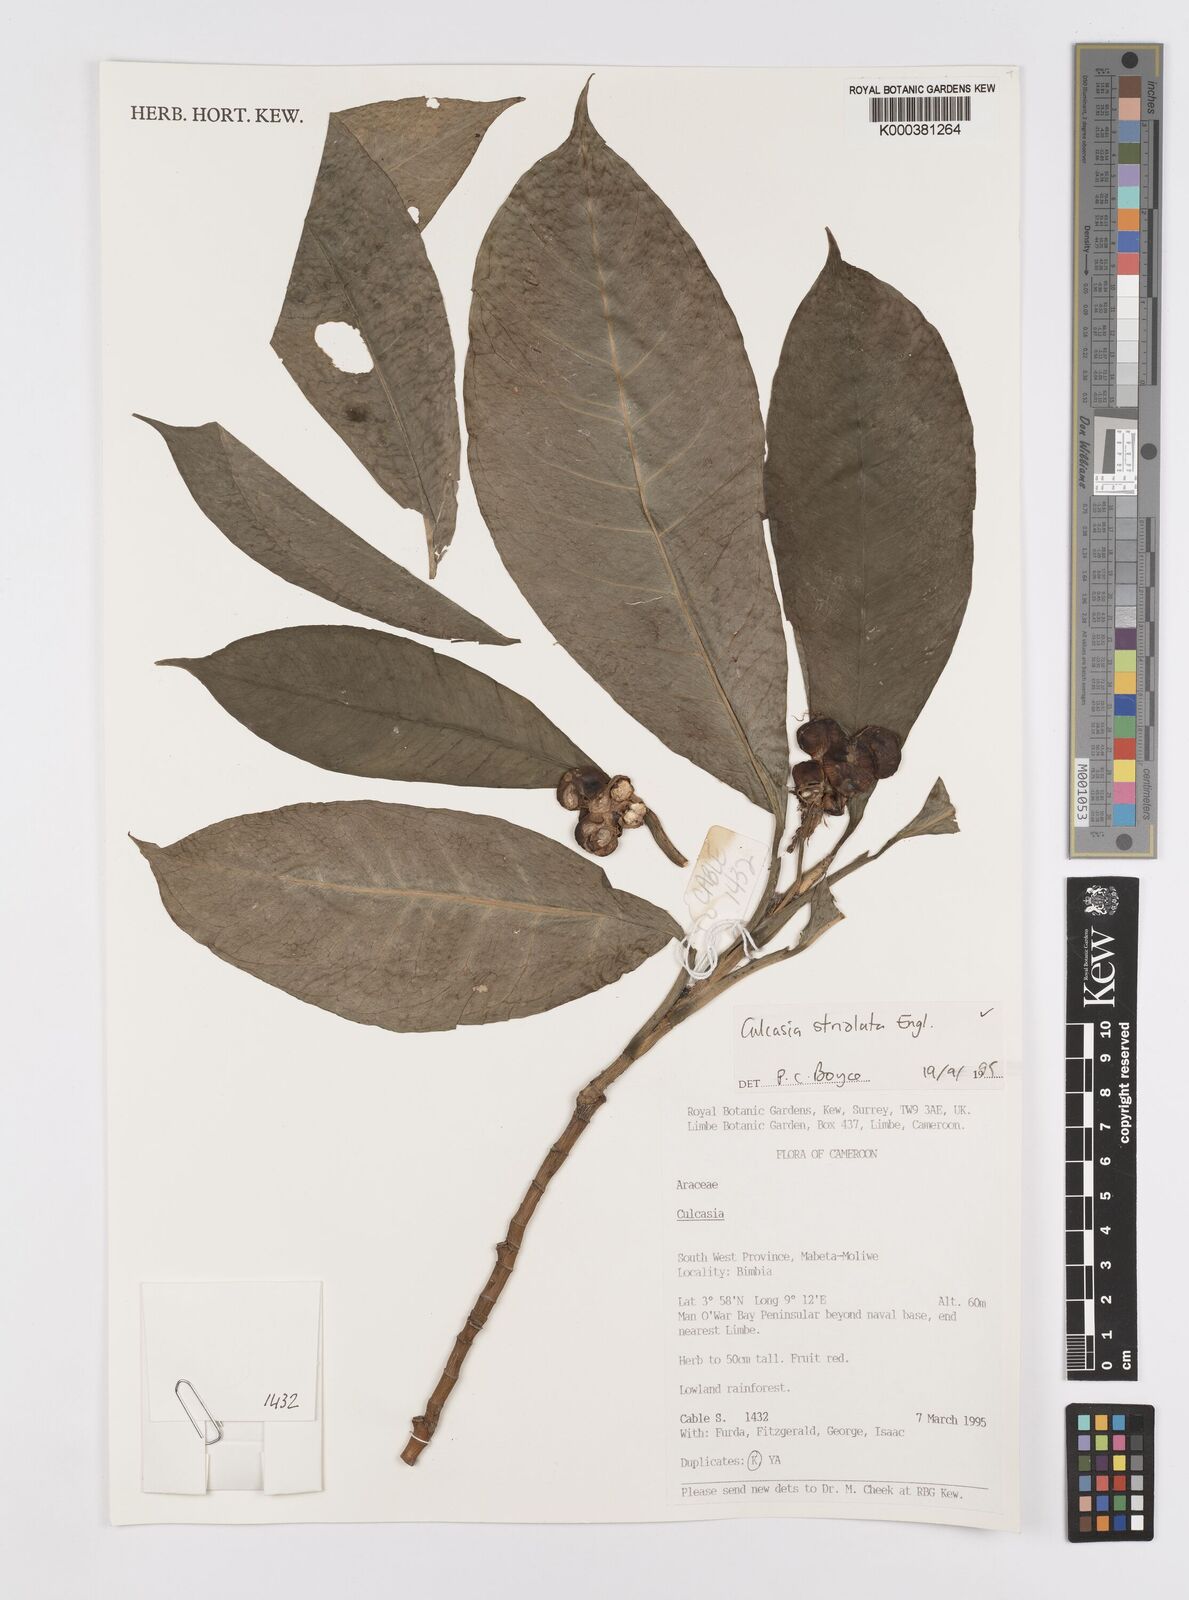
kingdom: Plantae
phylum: Tracheophyta
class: Liliopsida
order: Alismatales
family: Araceae
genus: Culcasia
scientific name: Culcasia striolata
